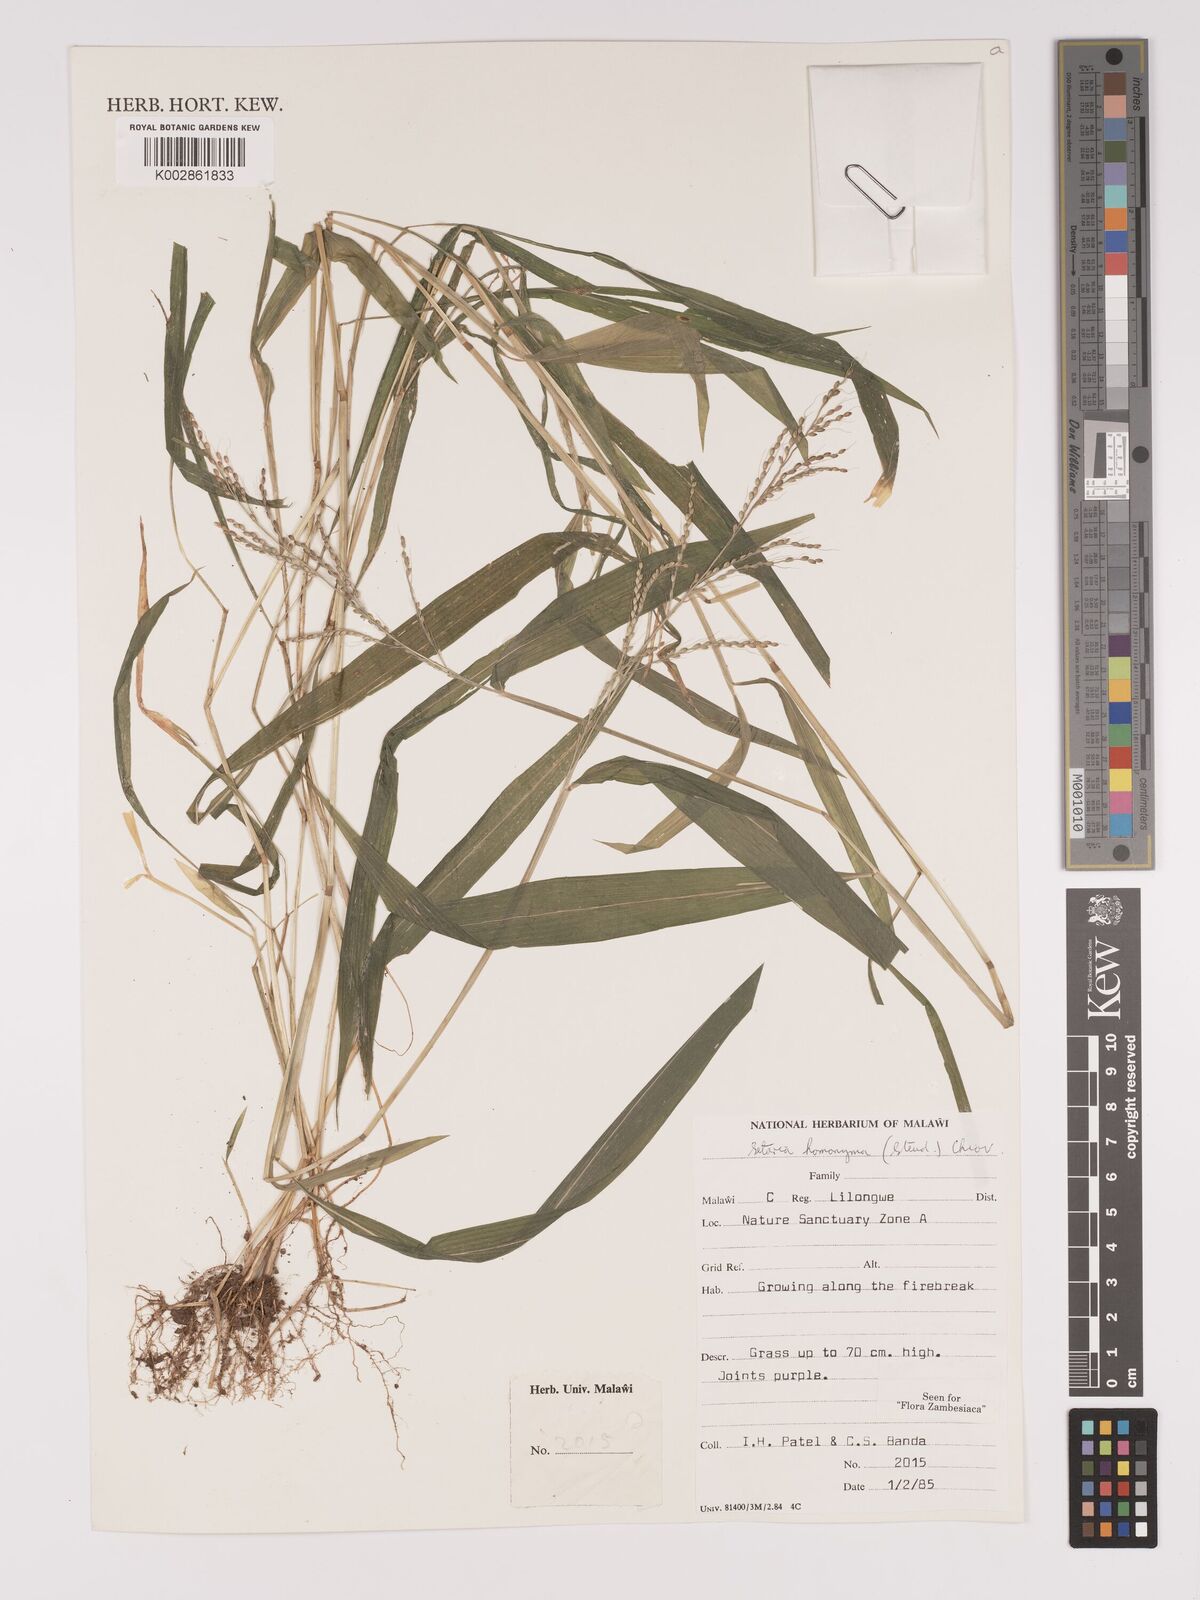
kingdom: Plantae
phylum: Tracheophyta
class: Liliopsida
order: Poales
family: Poaceae
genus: Setaria
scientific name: Setaria homonyma
